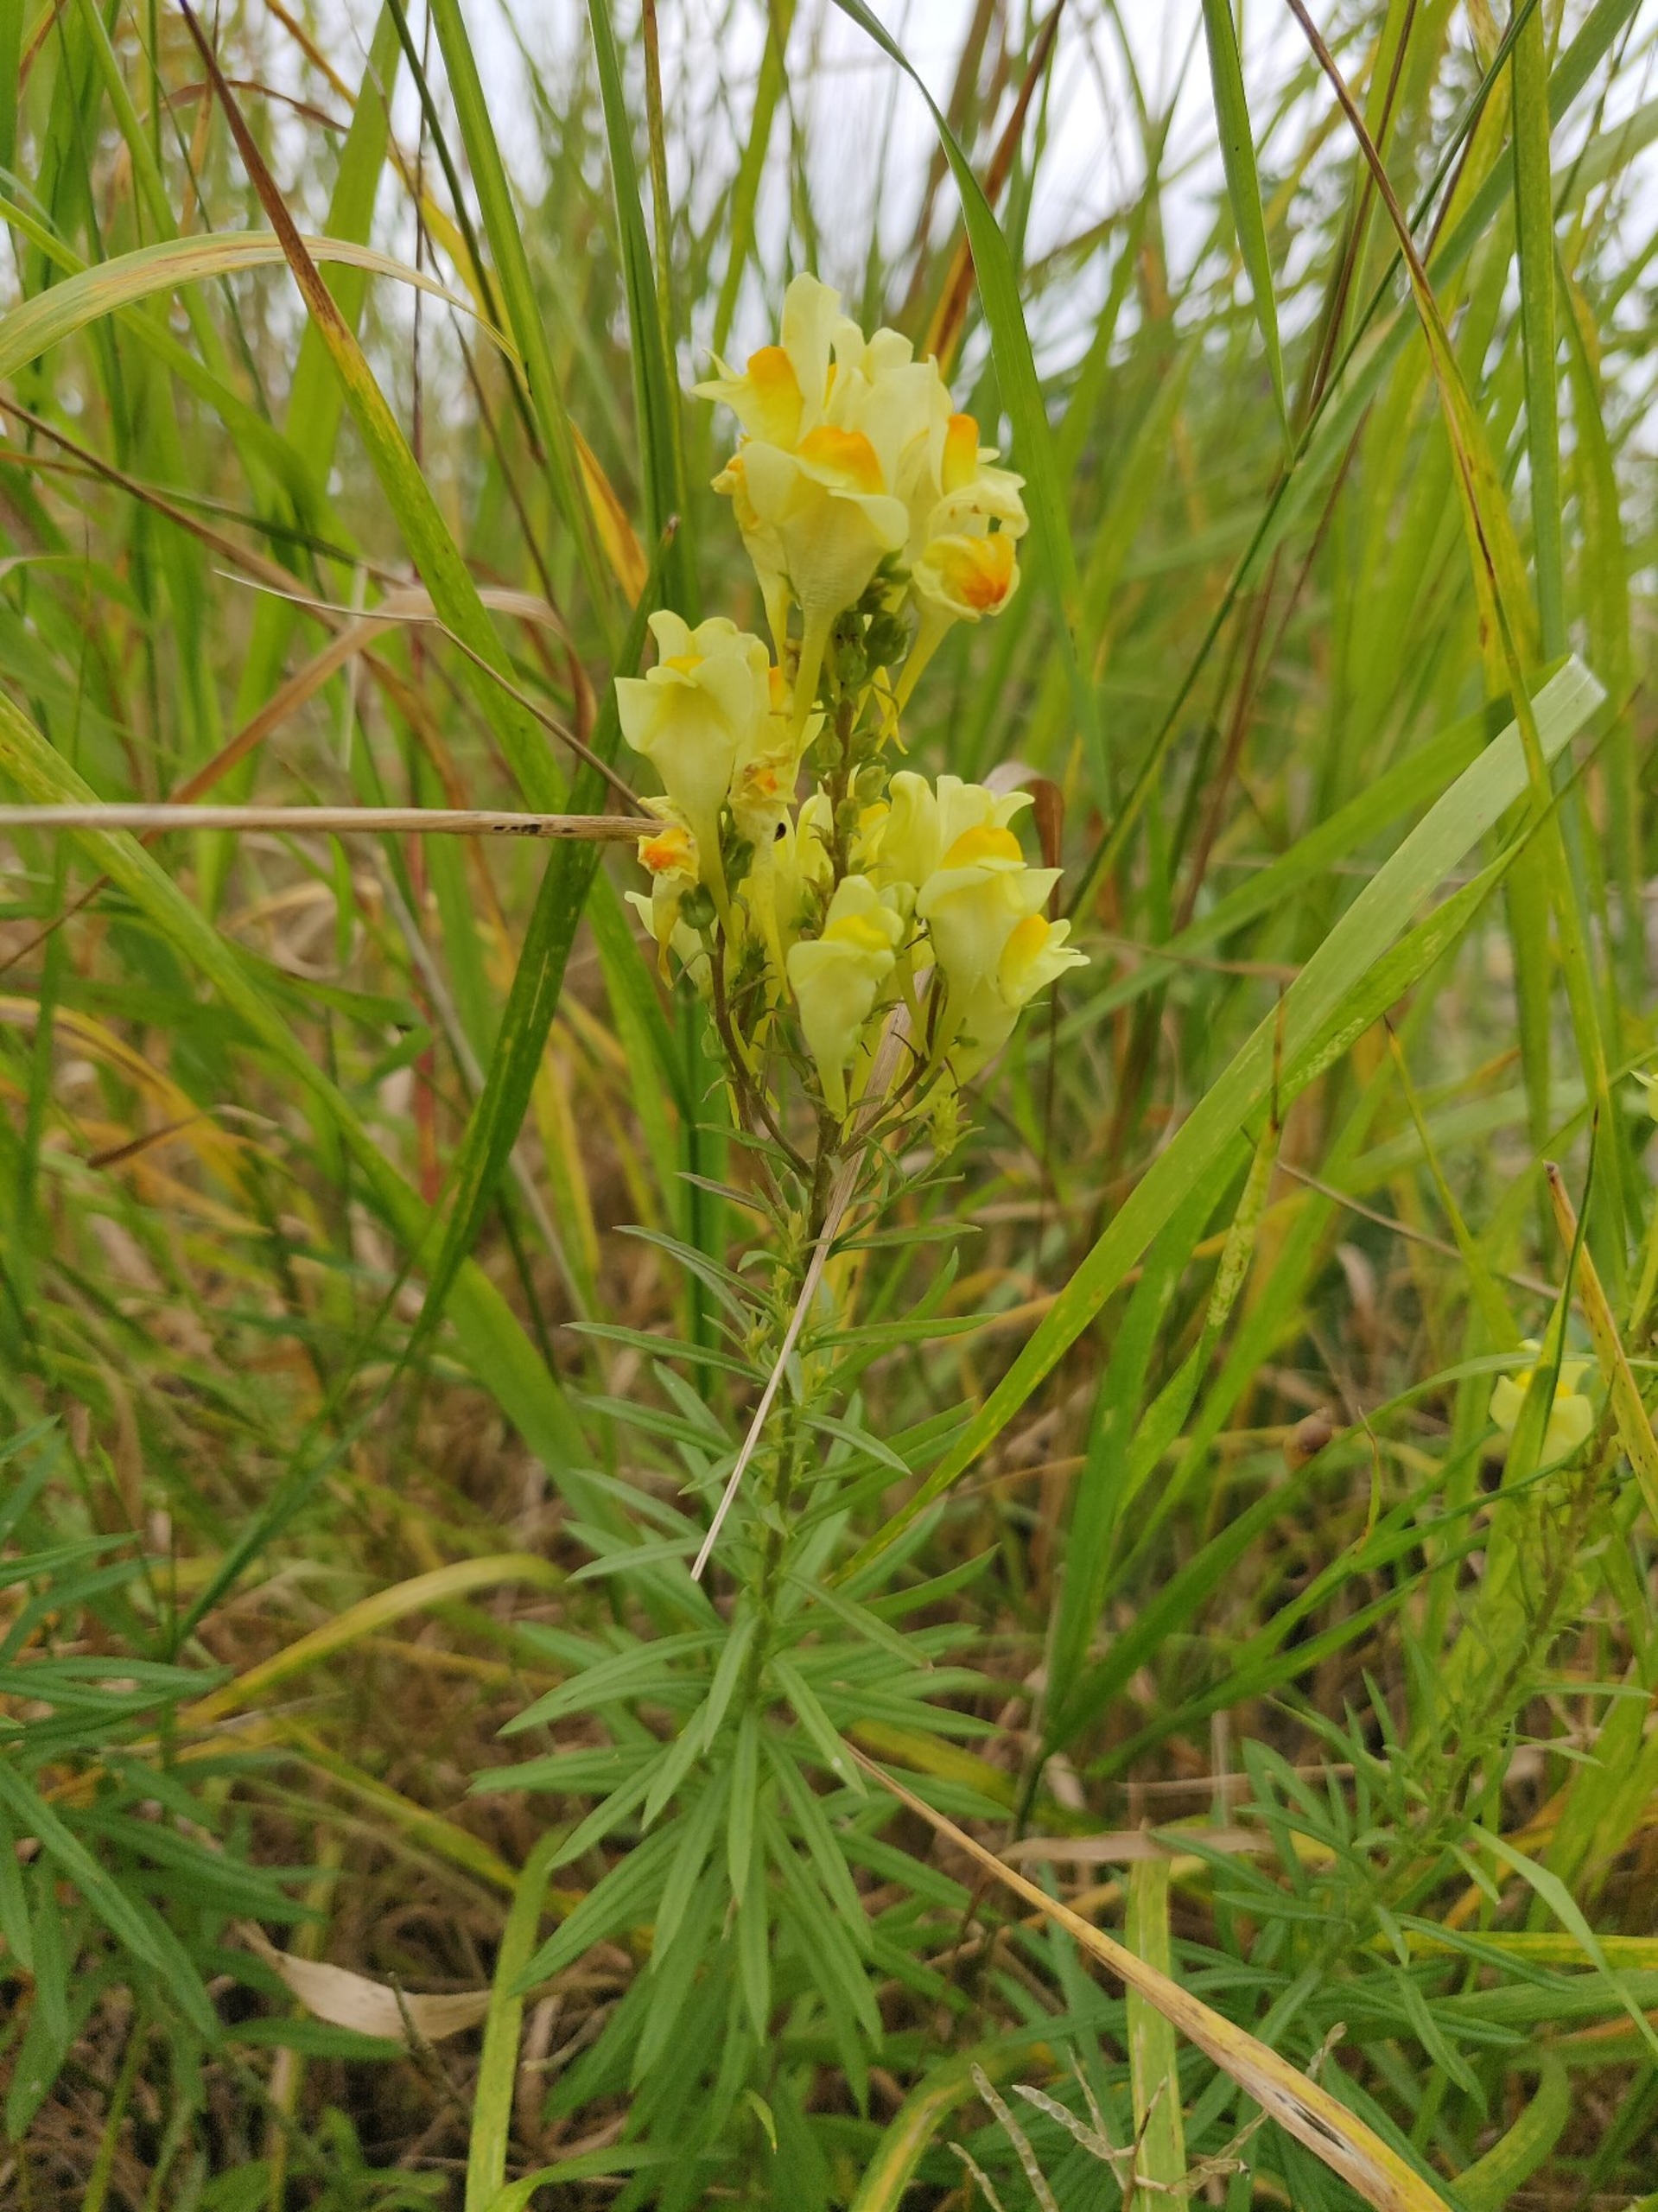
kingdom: Plantae
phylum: Tracheophyta
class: Magnoliopsida
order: Lamiales
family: Plantaginaceae
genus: Linaria
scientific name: Linaria vulgaris
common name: Almindelig torskemund
